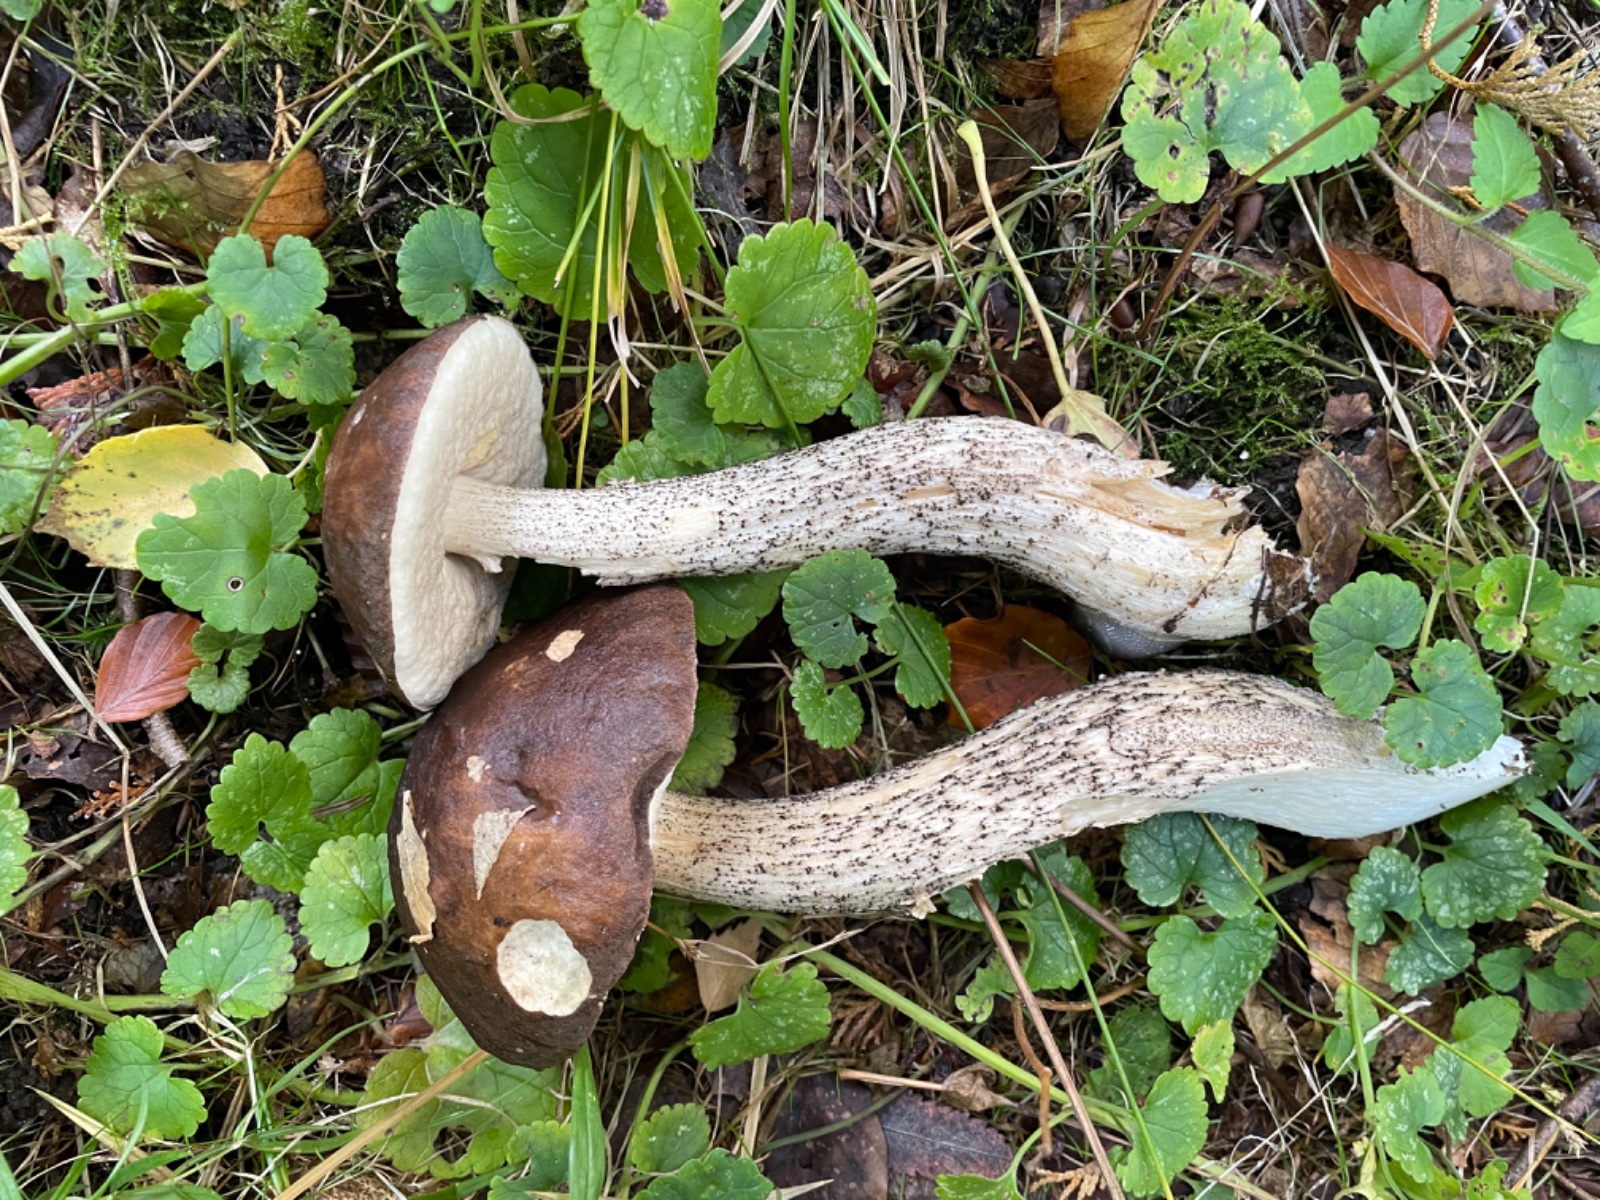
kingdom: Fungi
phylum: Basidiomycota
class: Agaricomycetes
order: Boletales
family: Boletaceae
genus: Leccinum
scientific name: Leccinum scabrum
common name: brun skælrørhat
